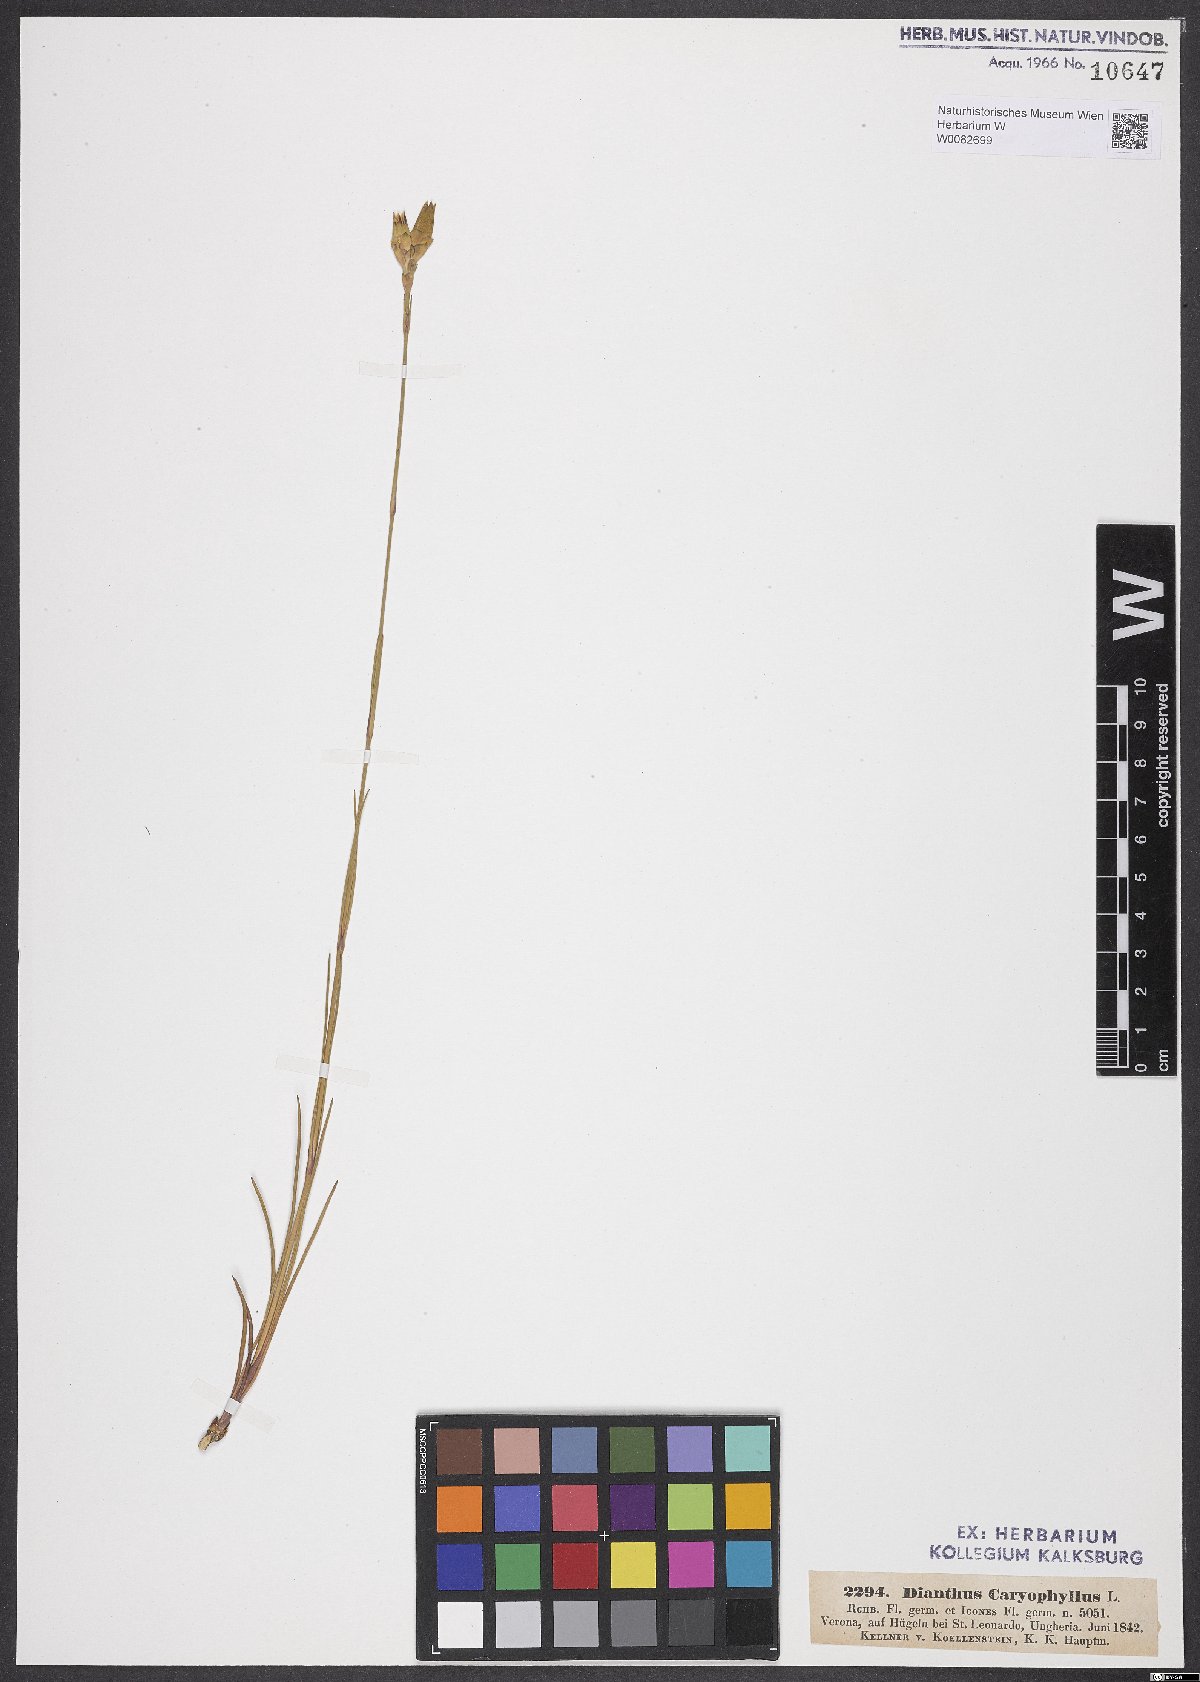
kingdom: Plantae
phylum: Tracheophyta
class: Magnoliopsida
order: Caryophyllales
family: Caryophyllaceae
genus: Dianthus
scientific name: Dianthus caryophyllus
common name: Clove pink
